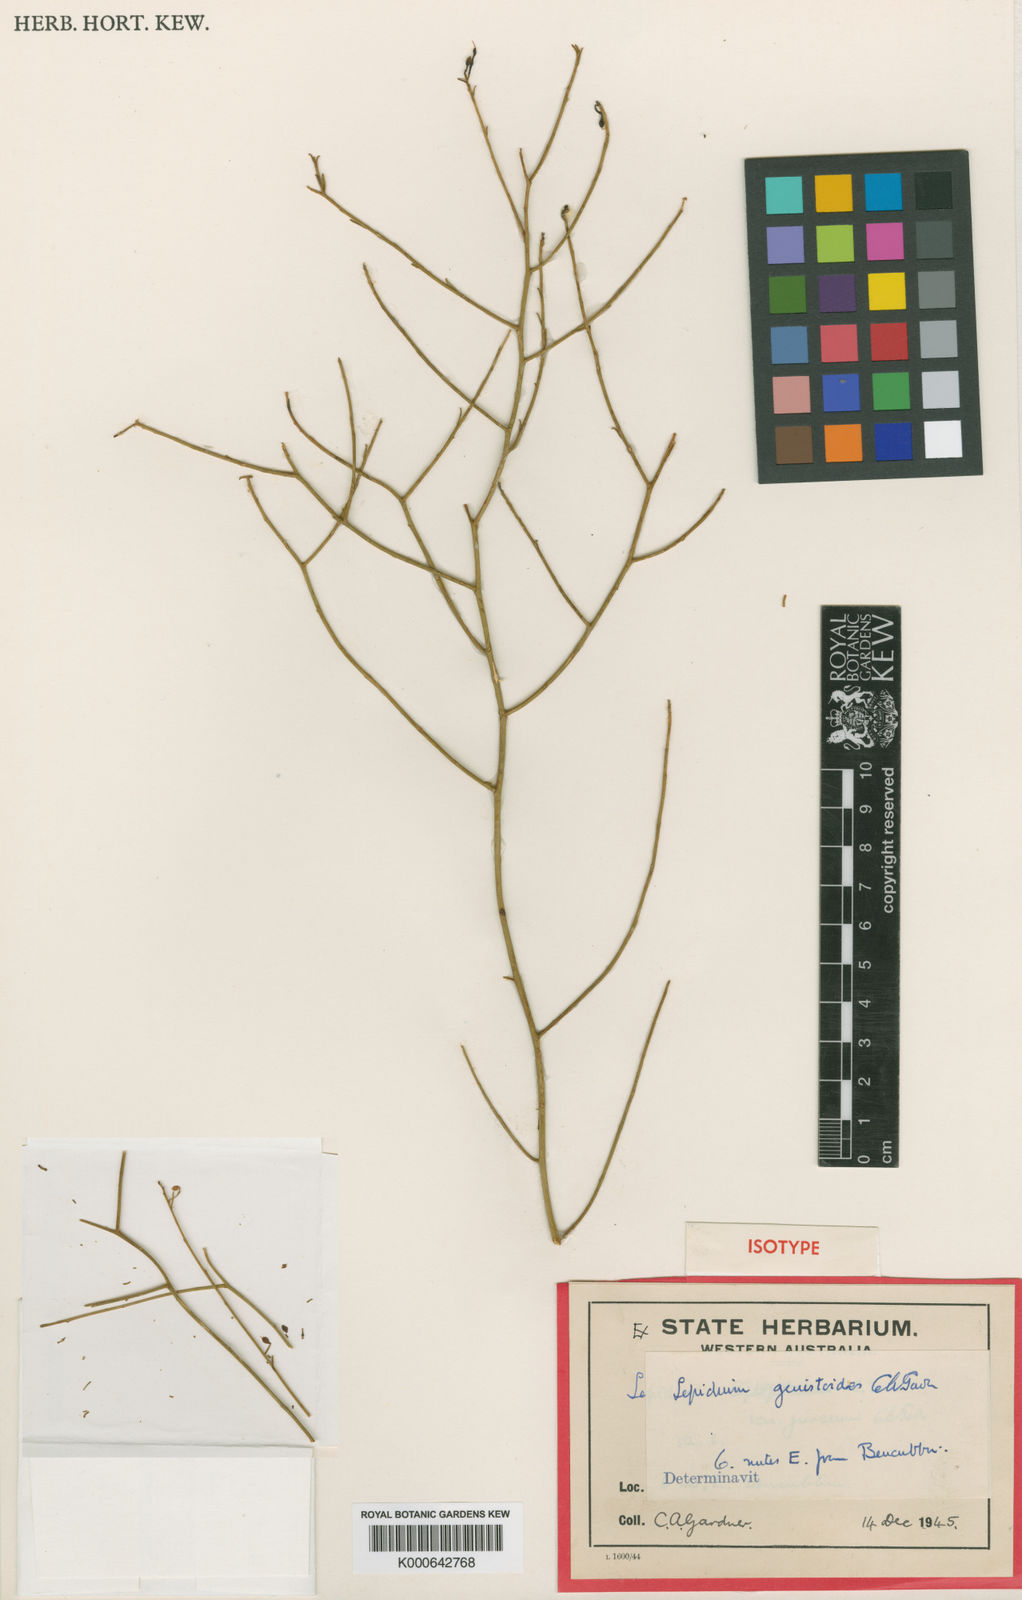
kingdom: Plantae
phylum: Tracheophyta
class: Magnoliopsida
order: Brassicales
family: Brassicaceae
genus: Lepidium
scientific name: Lepidium
